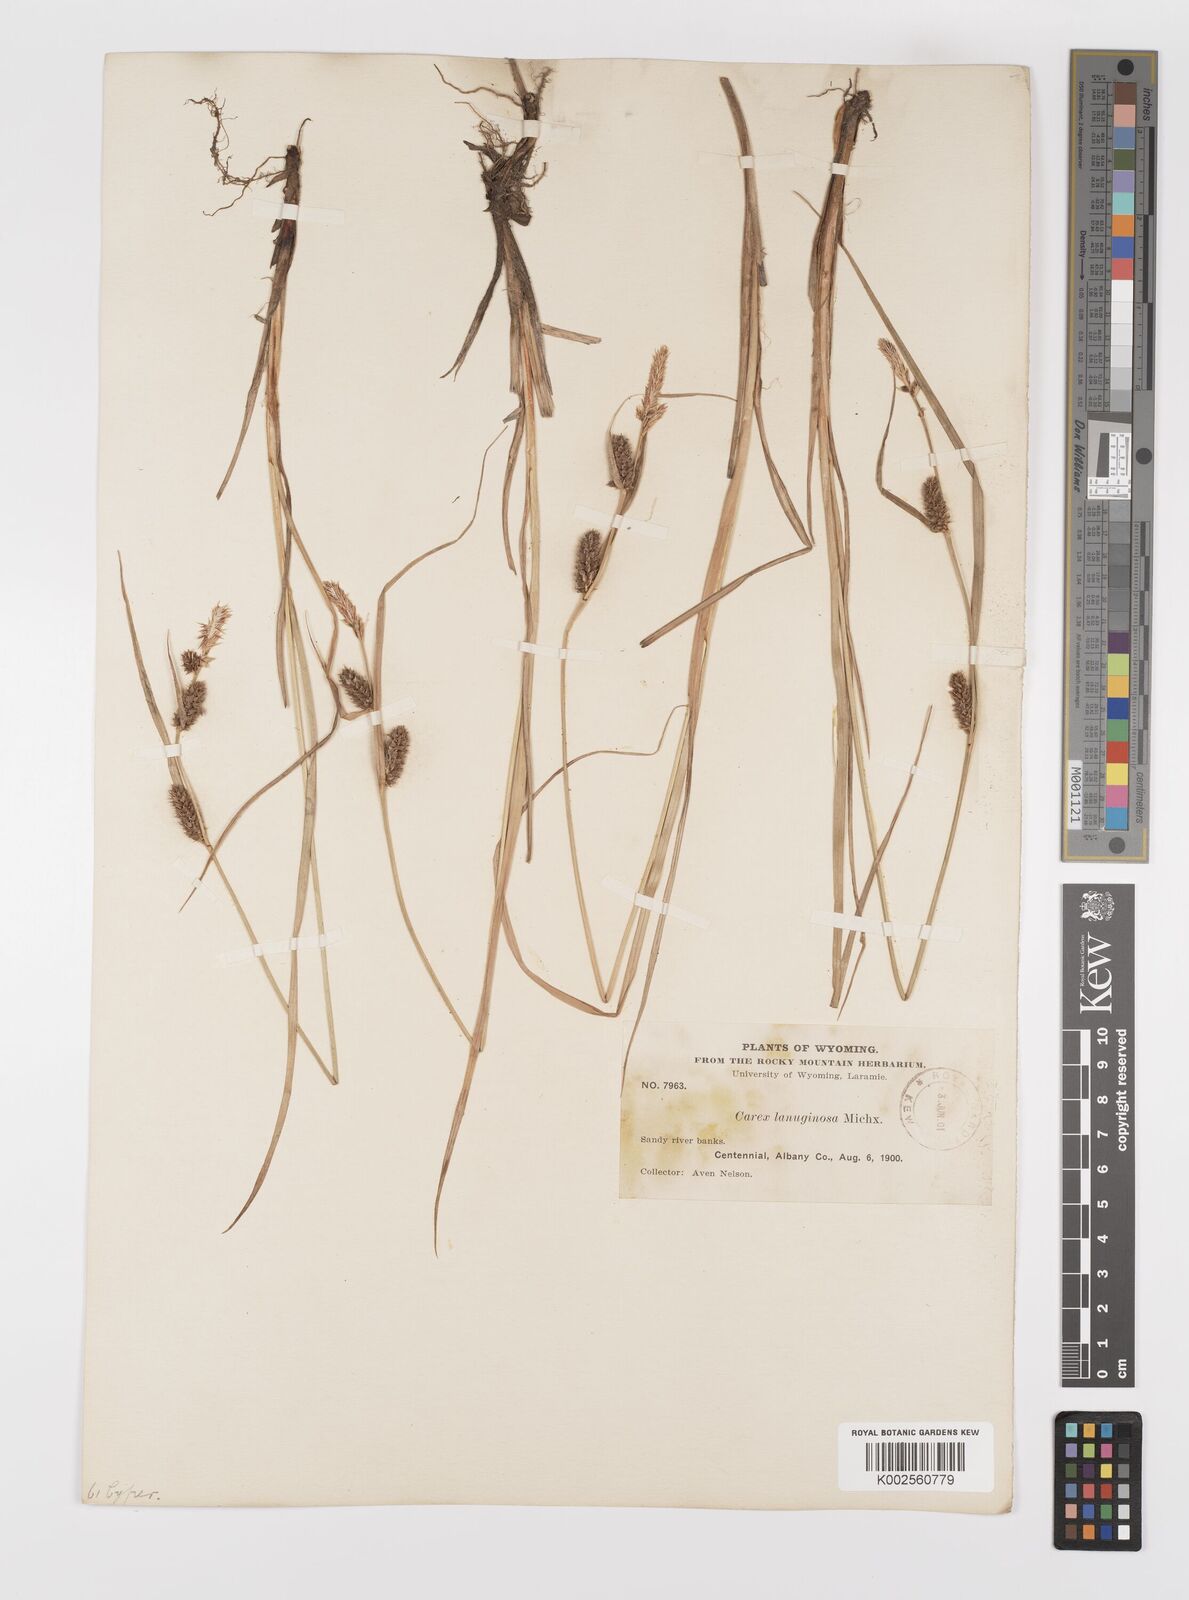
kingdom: Plantae
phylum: Tracheophyta
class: Liliopsida
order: Poales
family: Cyperaceae
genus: Carex
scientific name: Carex lasiocarpa
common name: Slender sedge
